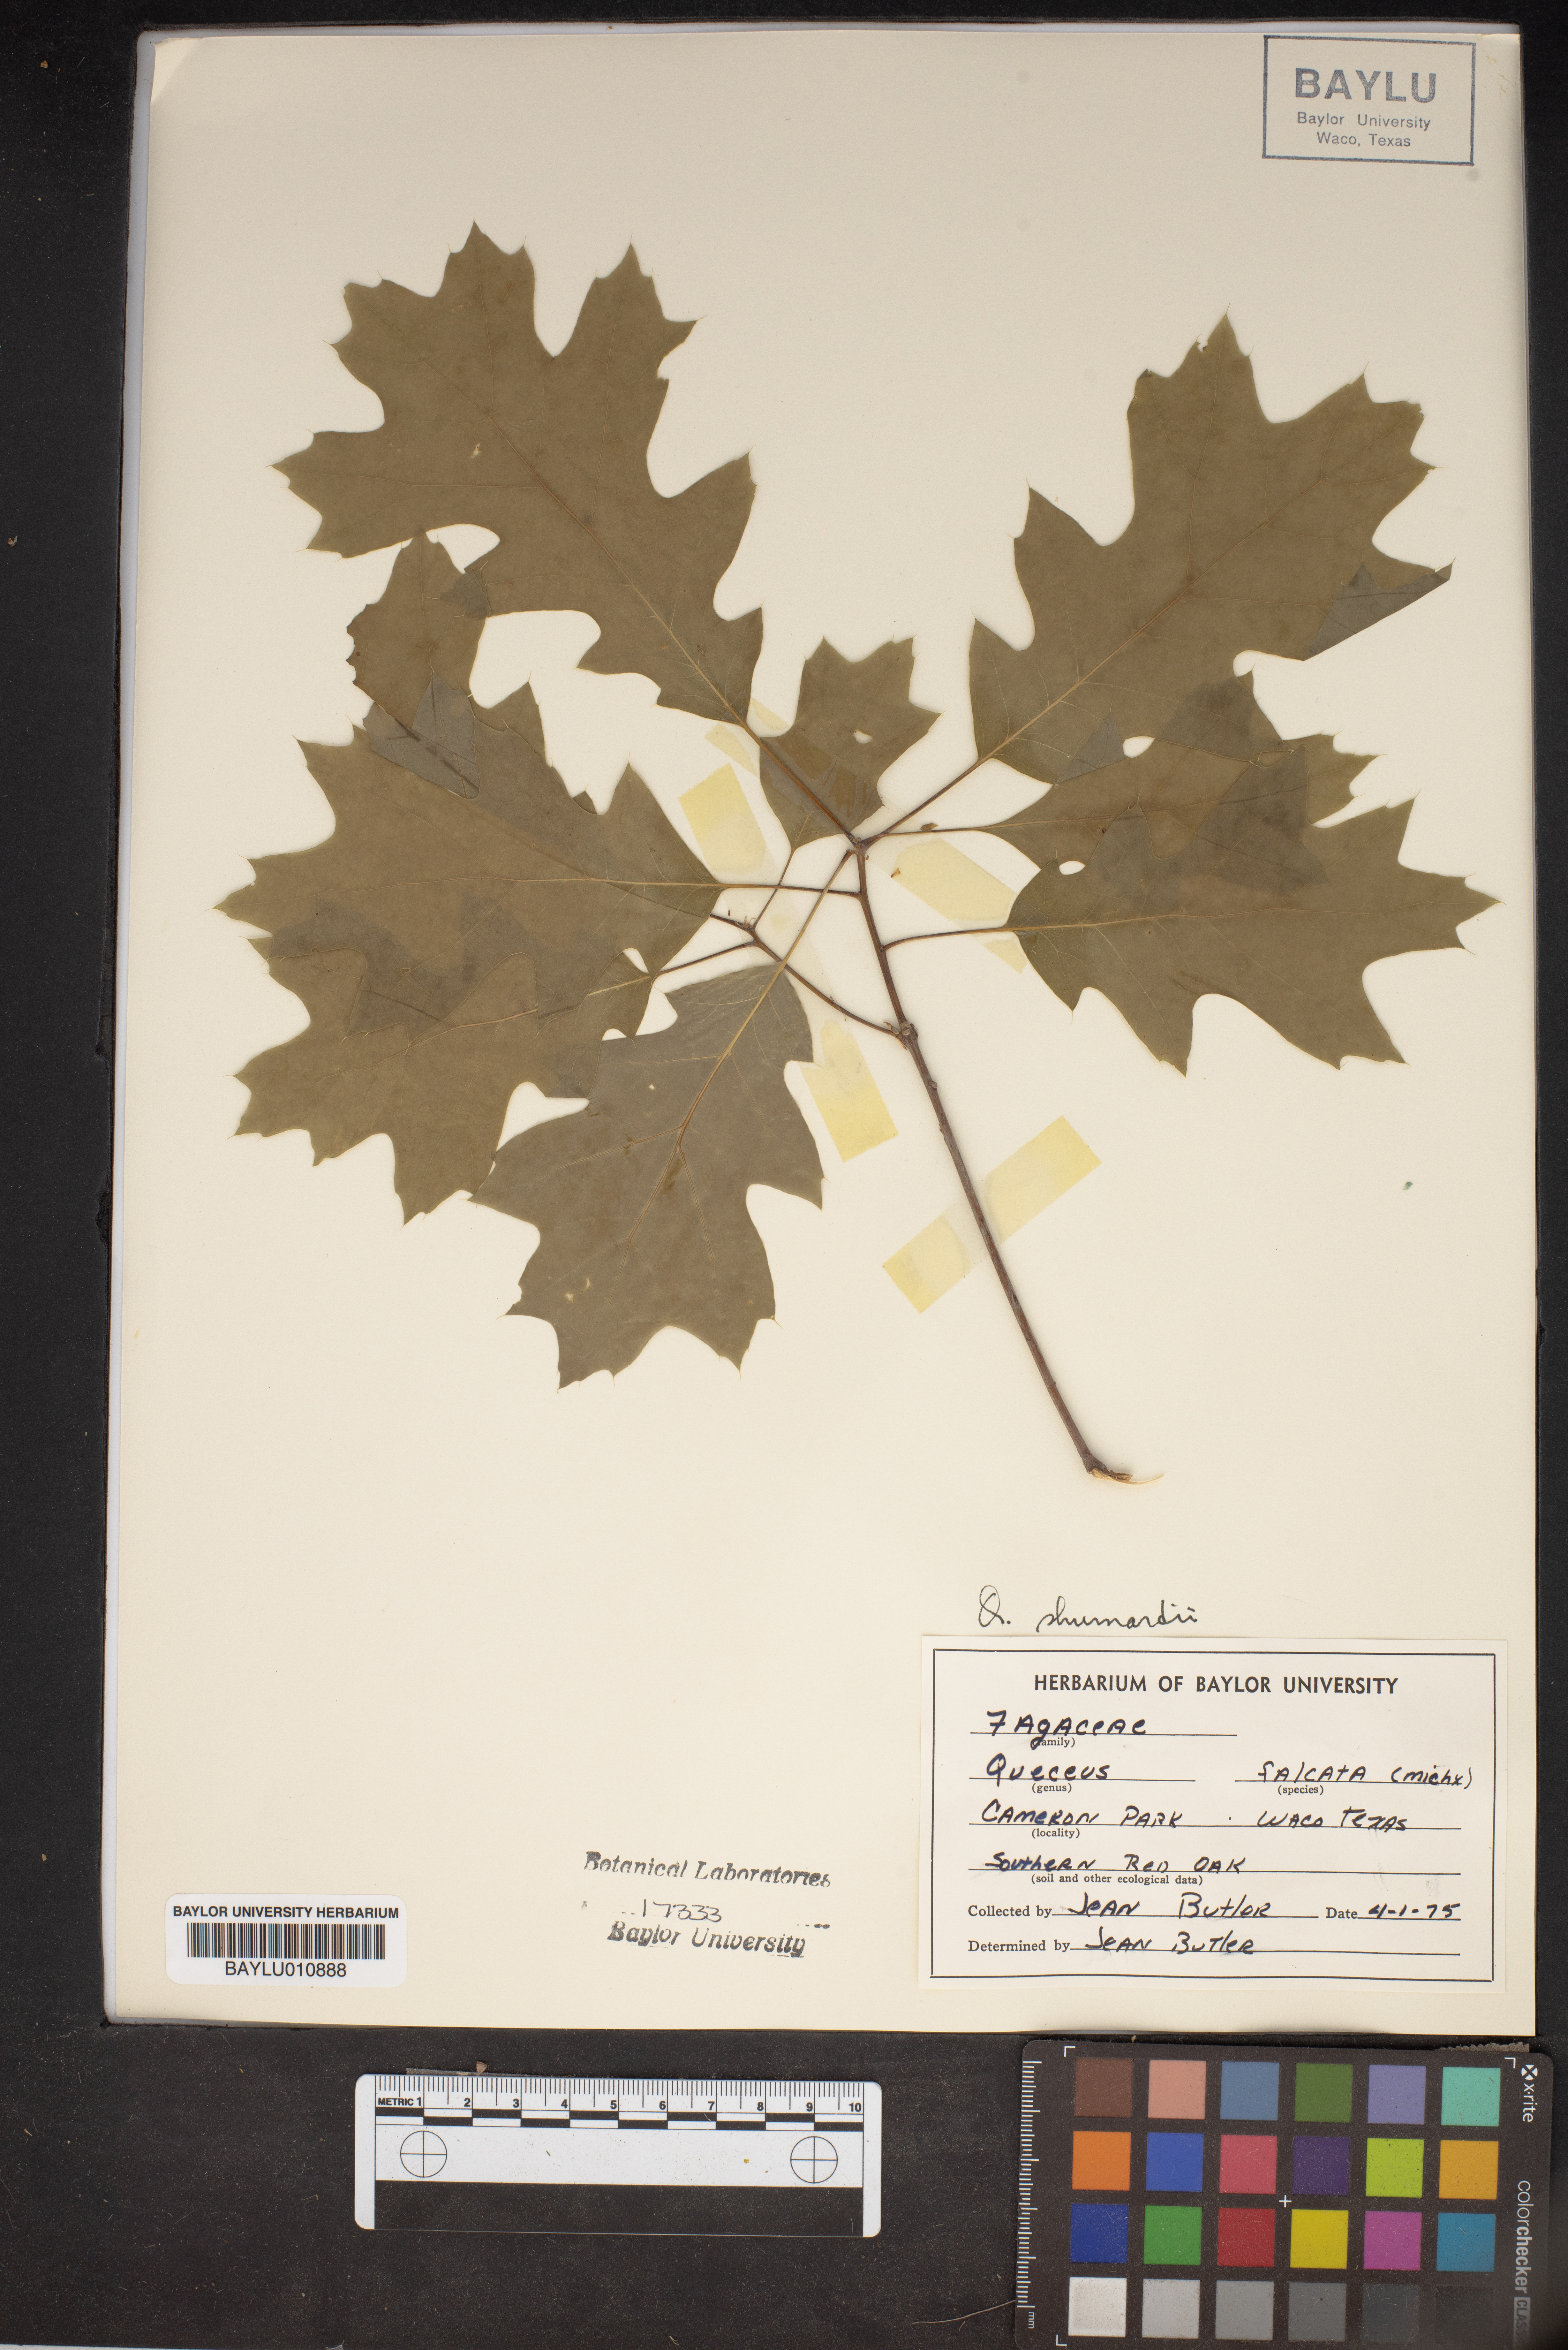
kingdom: Plantae
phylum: Tracheophyta
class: Magnoliopsida
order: Fagales
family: Fagaceae
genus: Quercus
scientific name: Quercus shumardii
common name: Shumard oak
